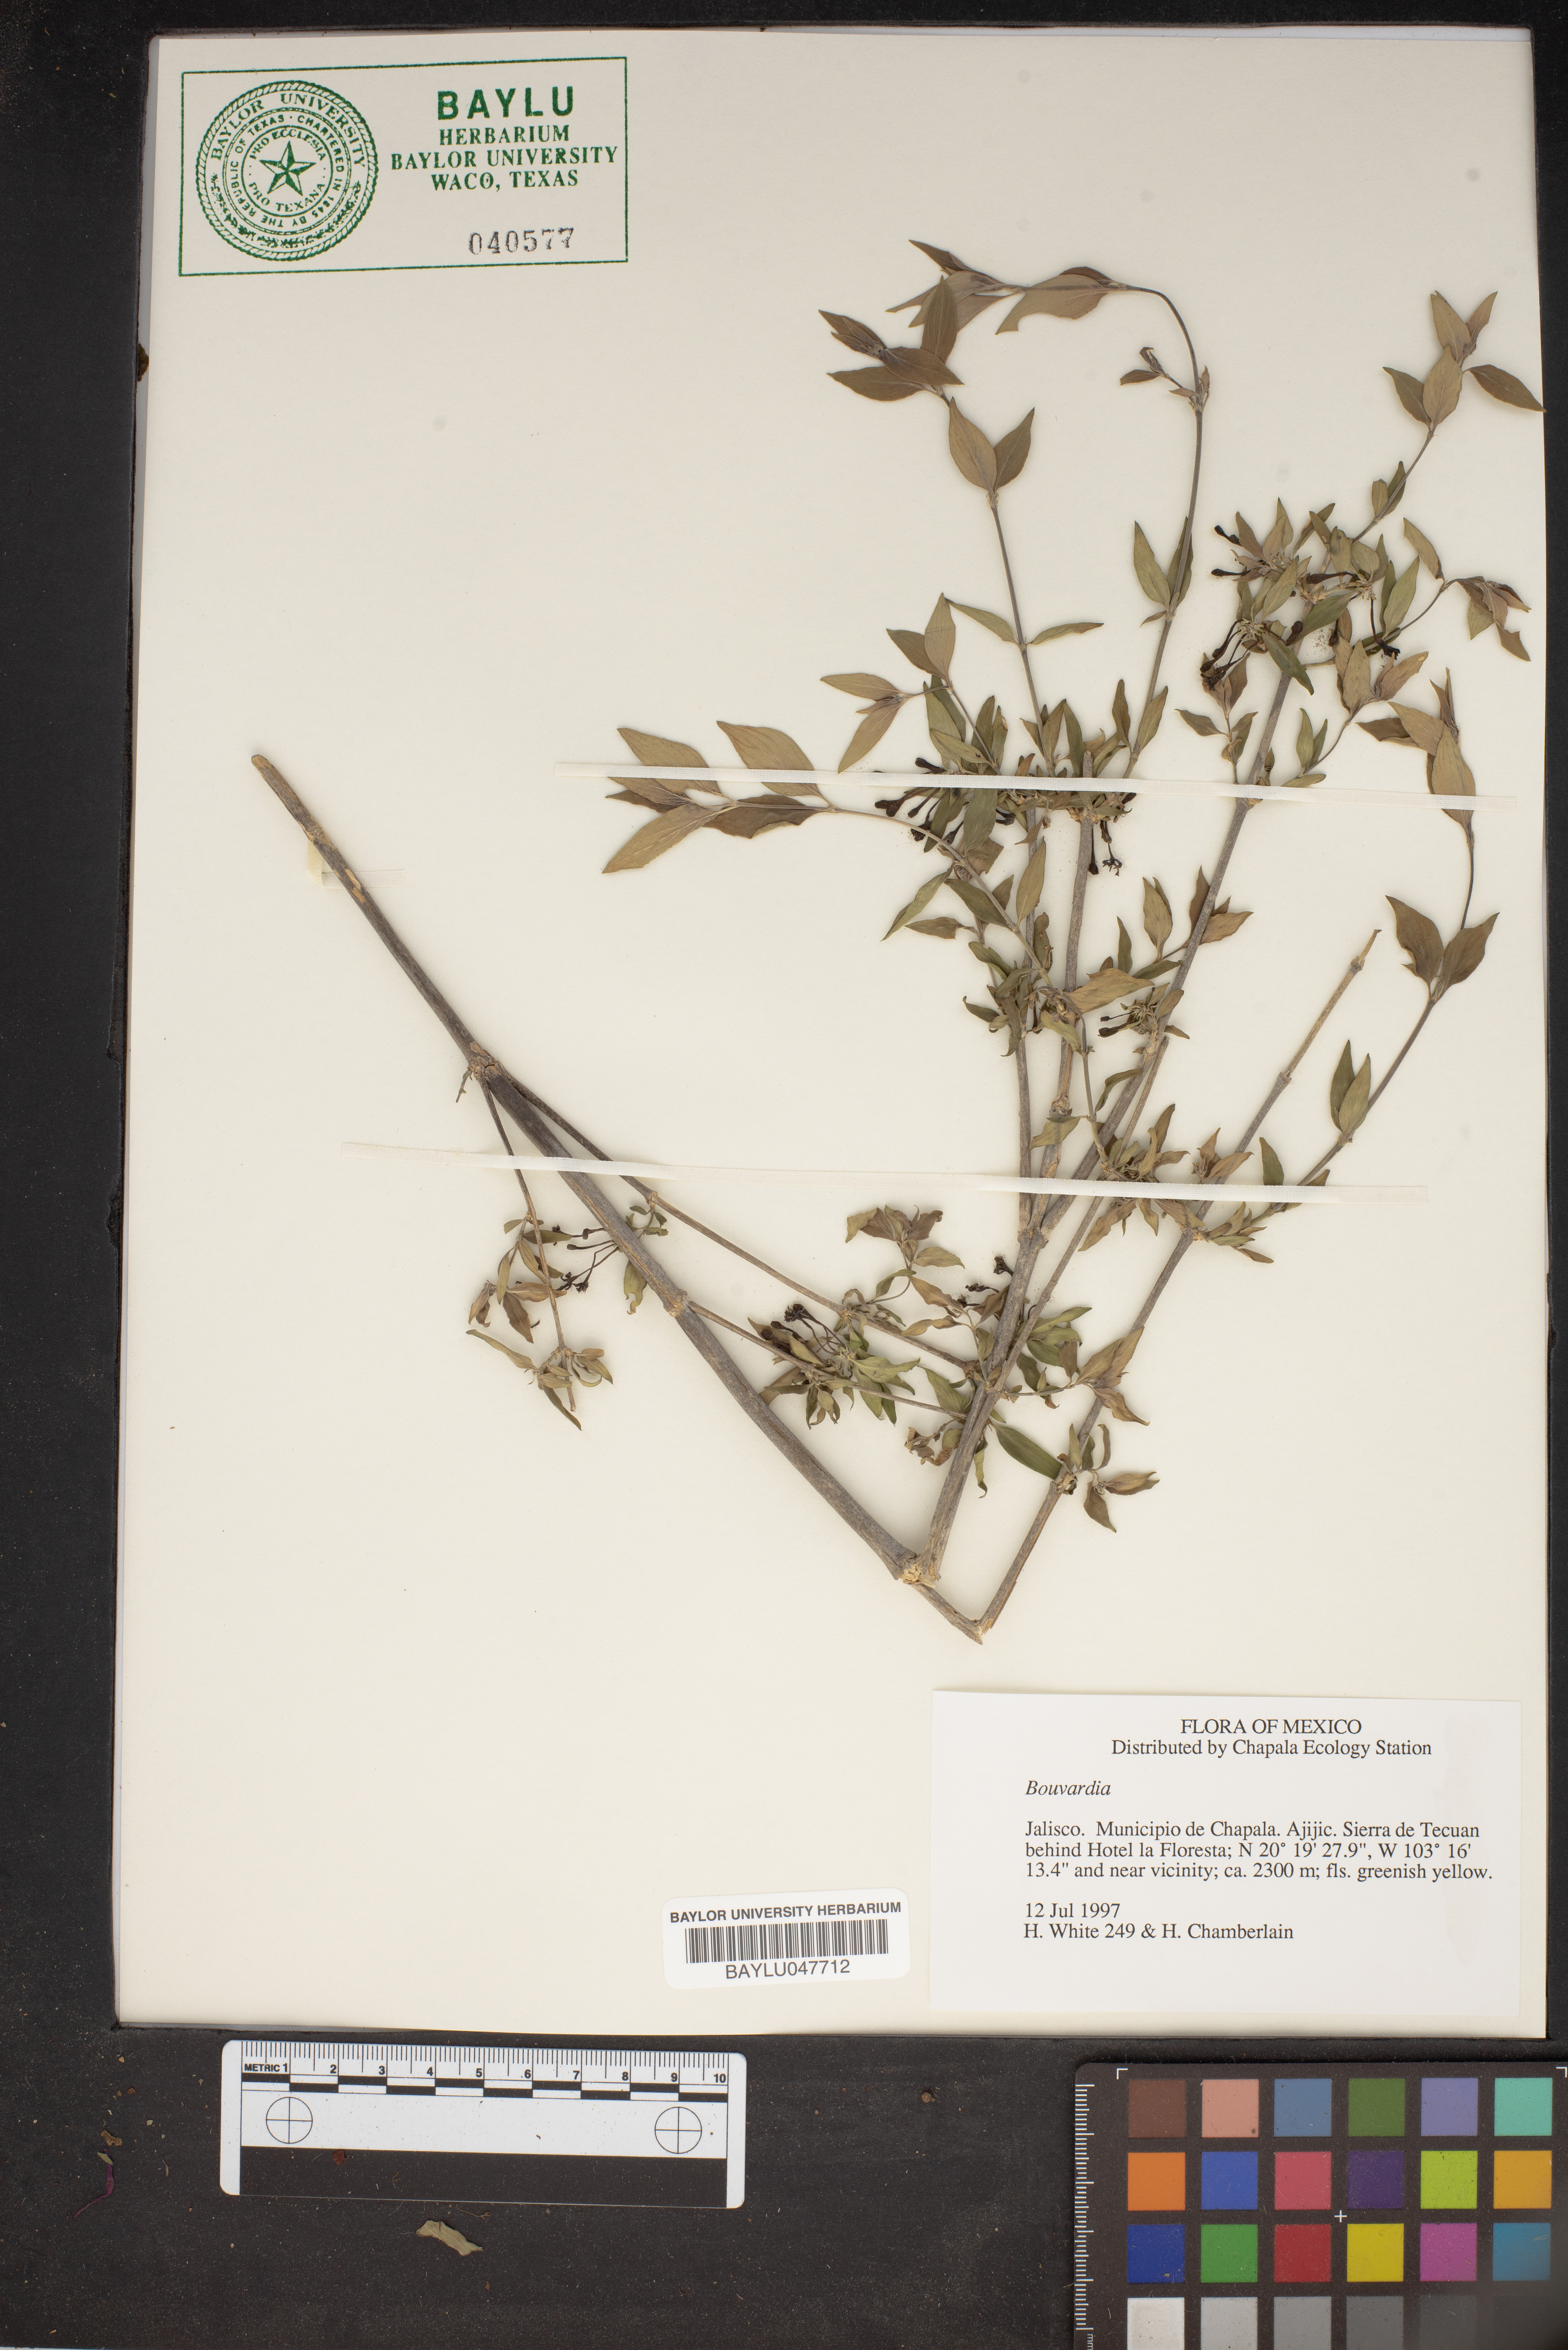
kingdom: Plantae
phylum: Tracheophyta
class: Magnoliopsida
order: Gentianales
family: Rubiaceae
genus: Bouvardia
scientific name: Bouvardia
